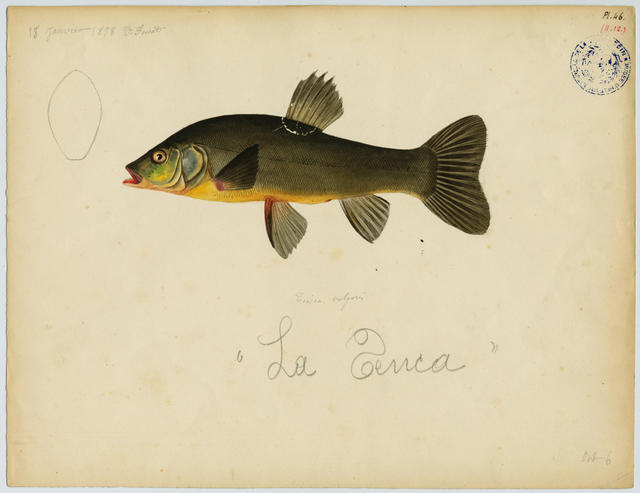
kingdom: Animalia
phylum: Chordata
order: Cypriniformes
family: Cyprinidae
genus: Tinca
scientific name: Tinca tinca
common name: Tench
